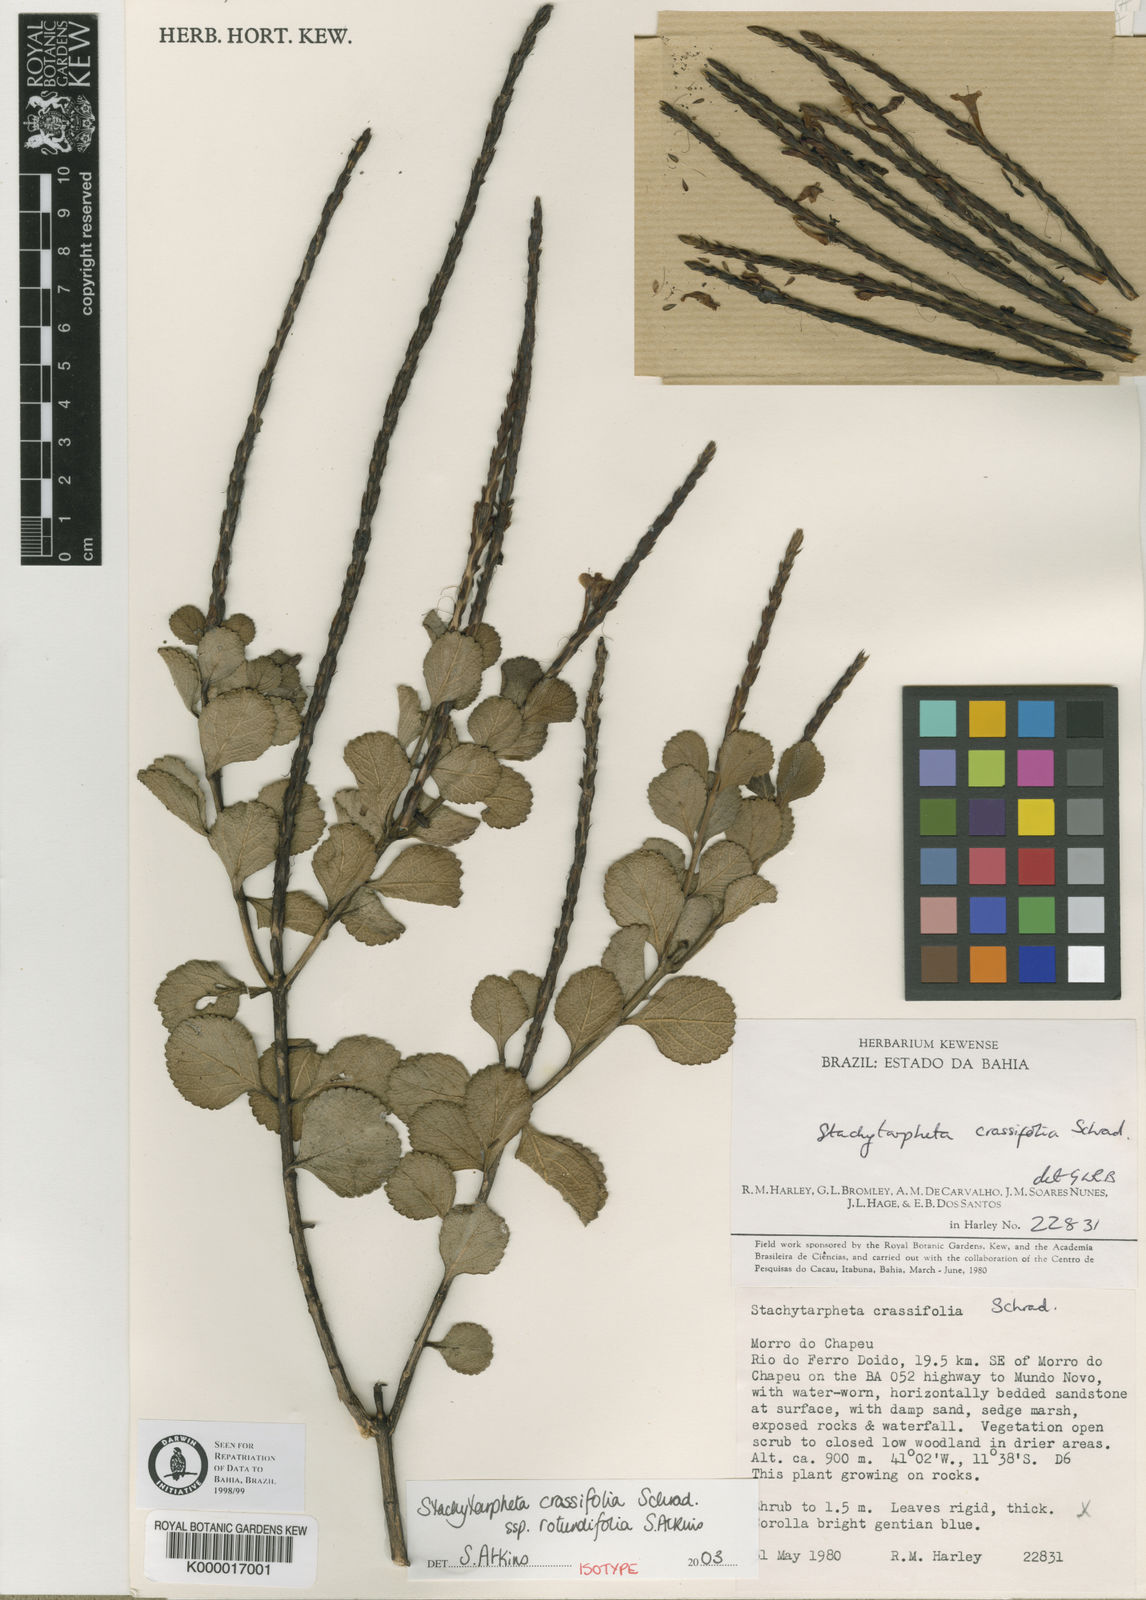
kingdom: Plantae
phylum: Tracheophyta
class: Magnoliopsida
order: Lamiales
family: Verbenaceae
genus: Stachytarpheta
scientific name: Stachytarpheta crassifolia
